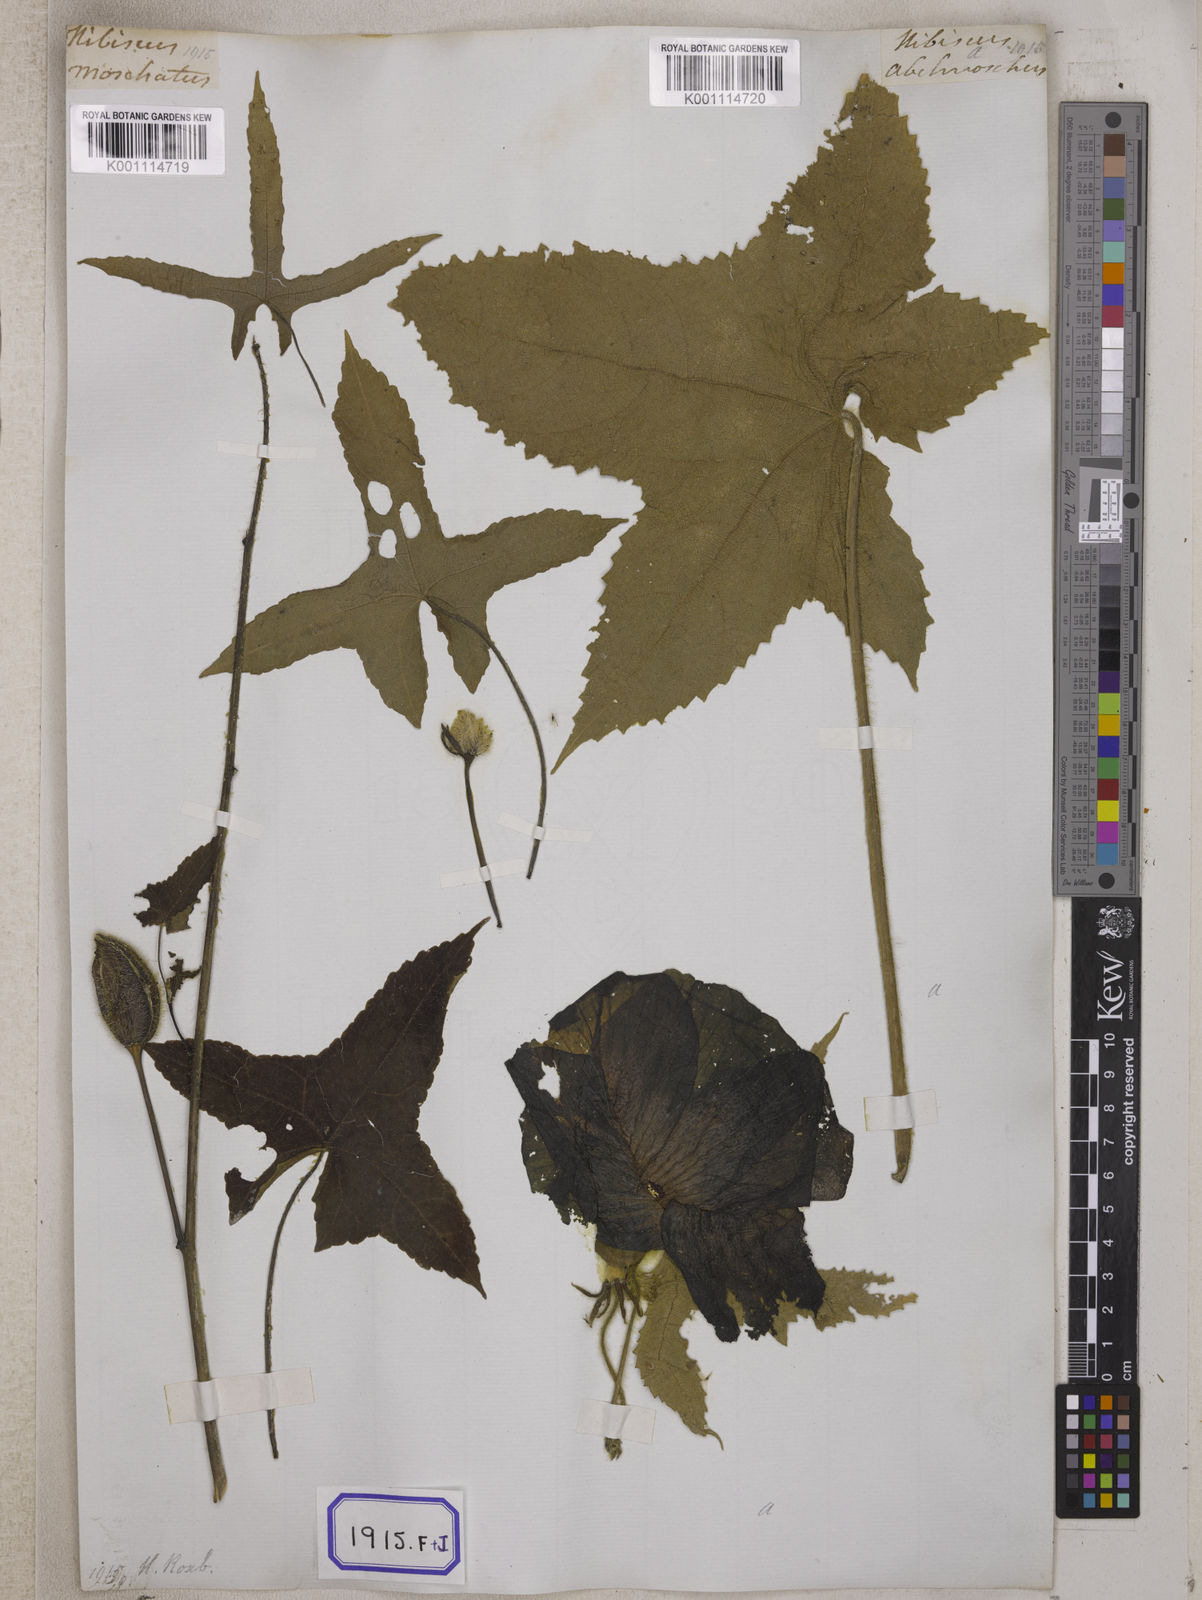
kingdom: Plantae
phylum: Tracheophyta
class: Magnoliopsida
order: Malvales
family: Malvaceae
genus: Bamia
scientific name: Bamia
